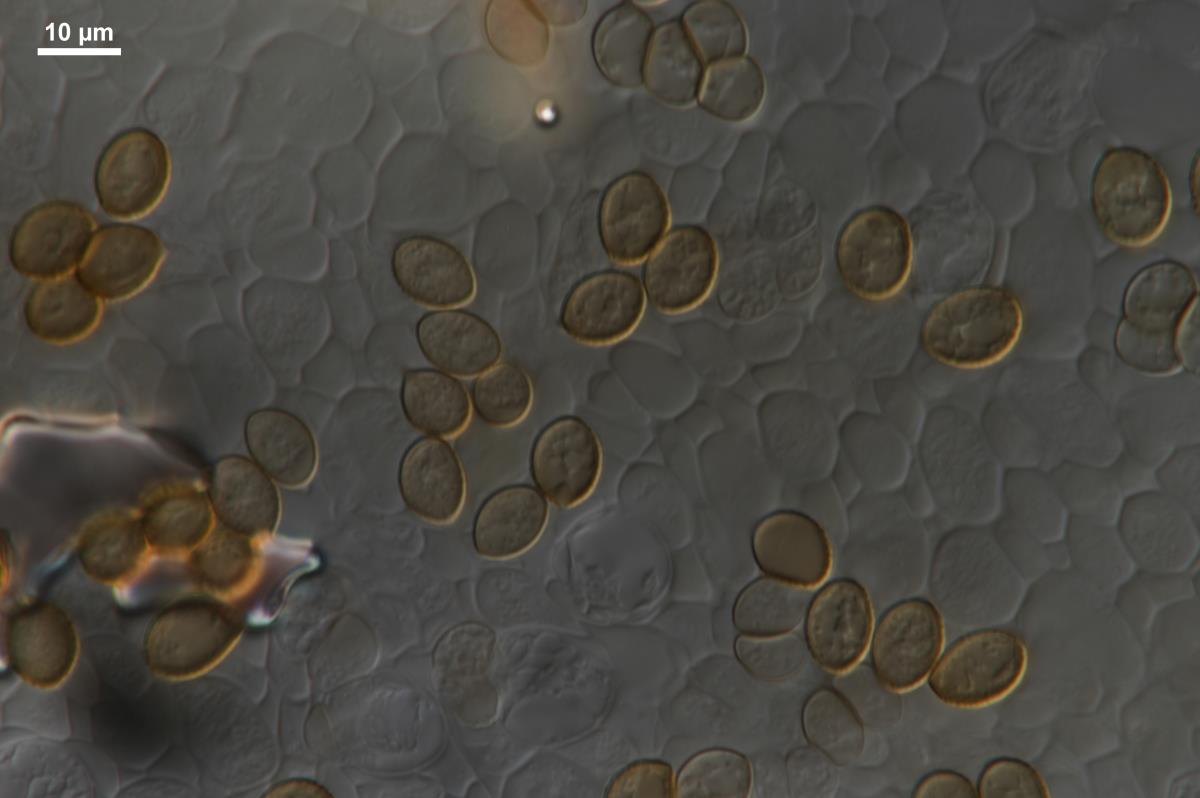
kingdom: Fungi
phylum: Basidiomycota
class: Agaricomycetes
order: Agaricales
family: Cortinariaceae
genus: Cortinarius
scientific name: Cortinarius meleagris
